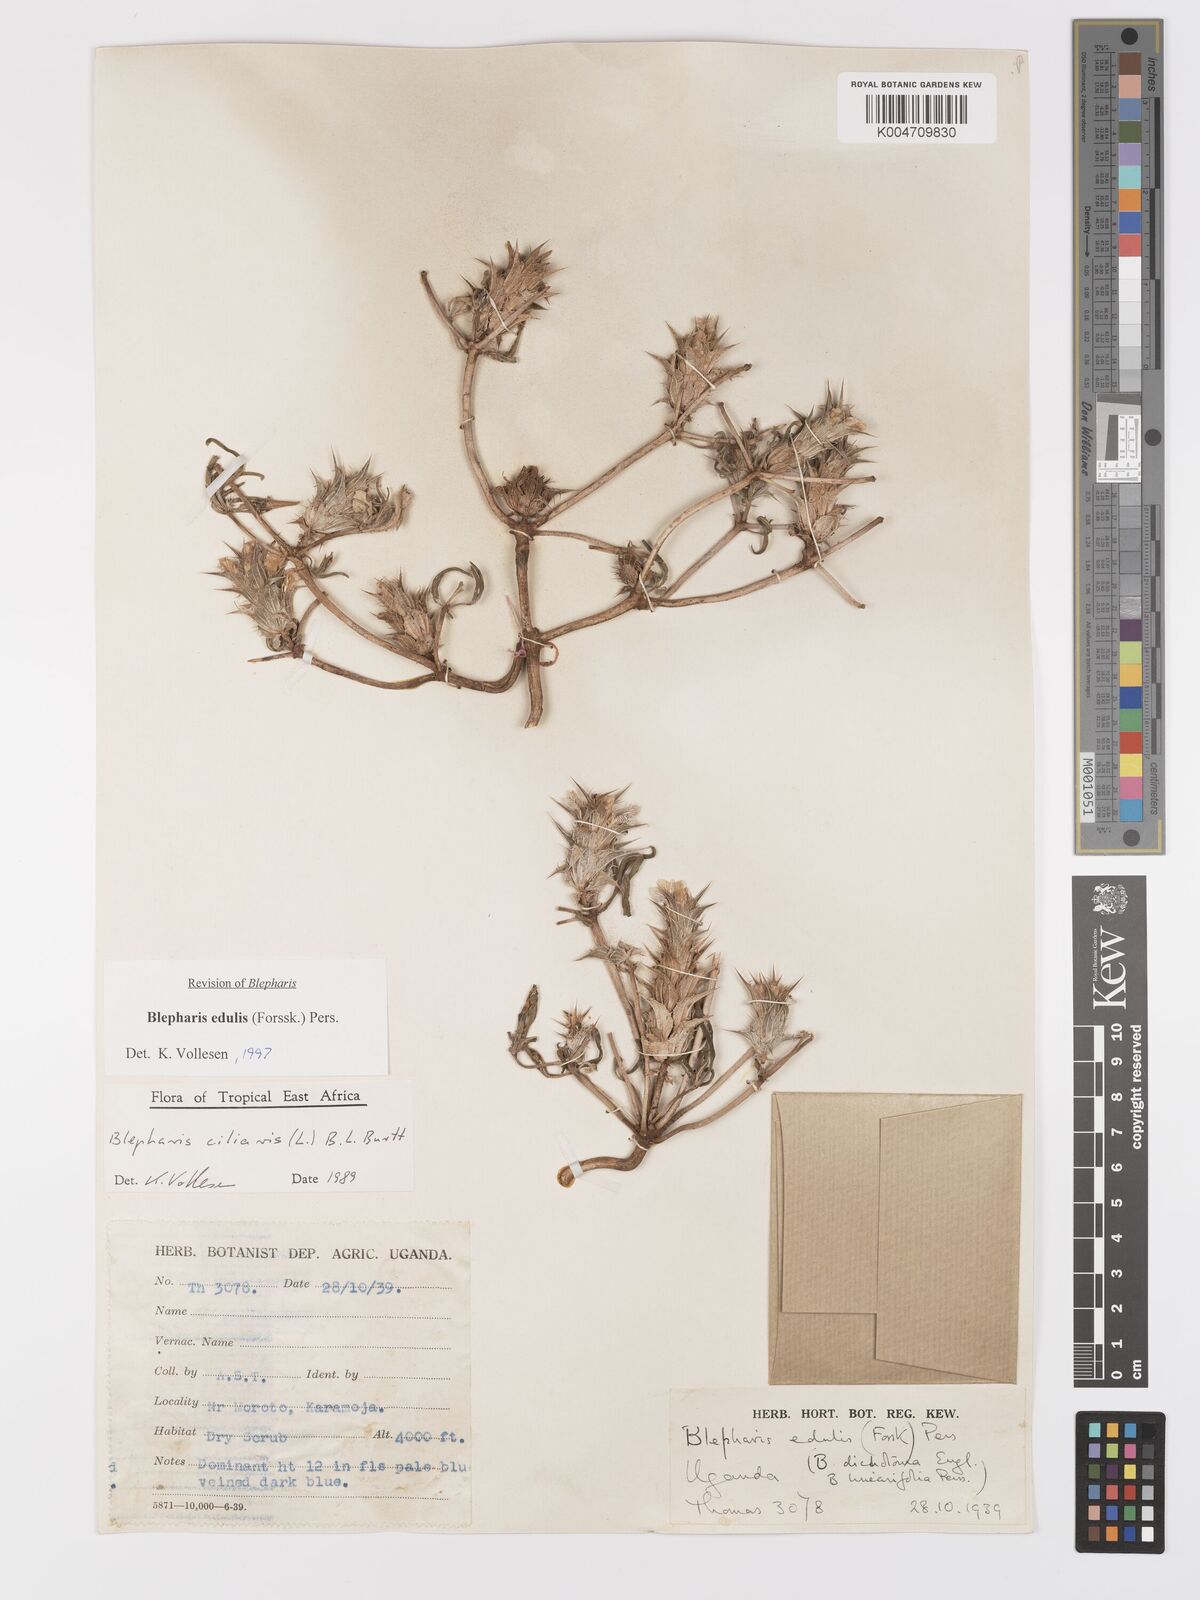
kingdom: Plantae
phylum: Tracheophyta
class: Magnoliopsida
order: Lamiales
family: Acanthaceae
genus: Blepharis
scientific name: Blepharis edulis
